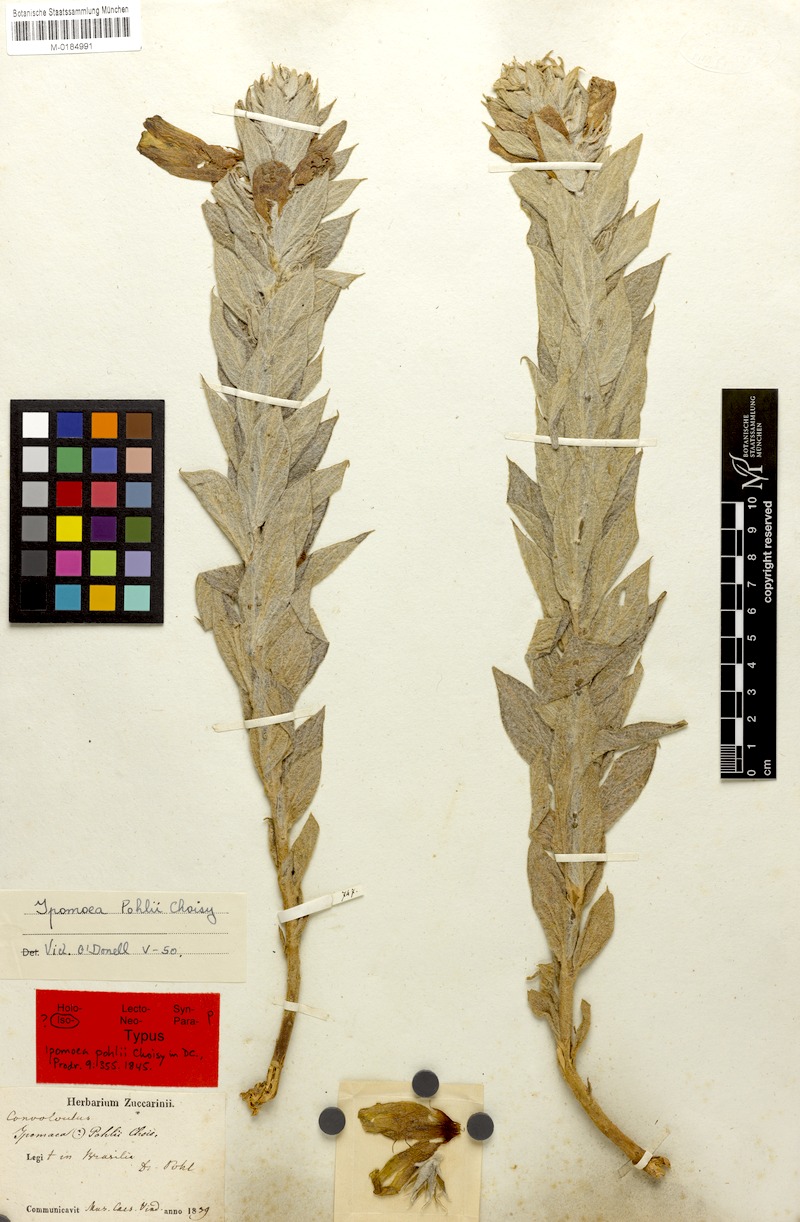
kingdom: Plantae
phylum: Tracheophyta
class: Magnoliopsida
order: Solanales
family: Convolvulaceae
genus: Ipomoea
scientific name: Ipomoea pohlii
